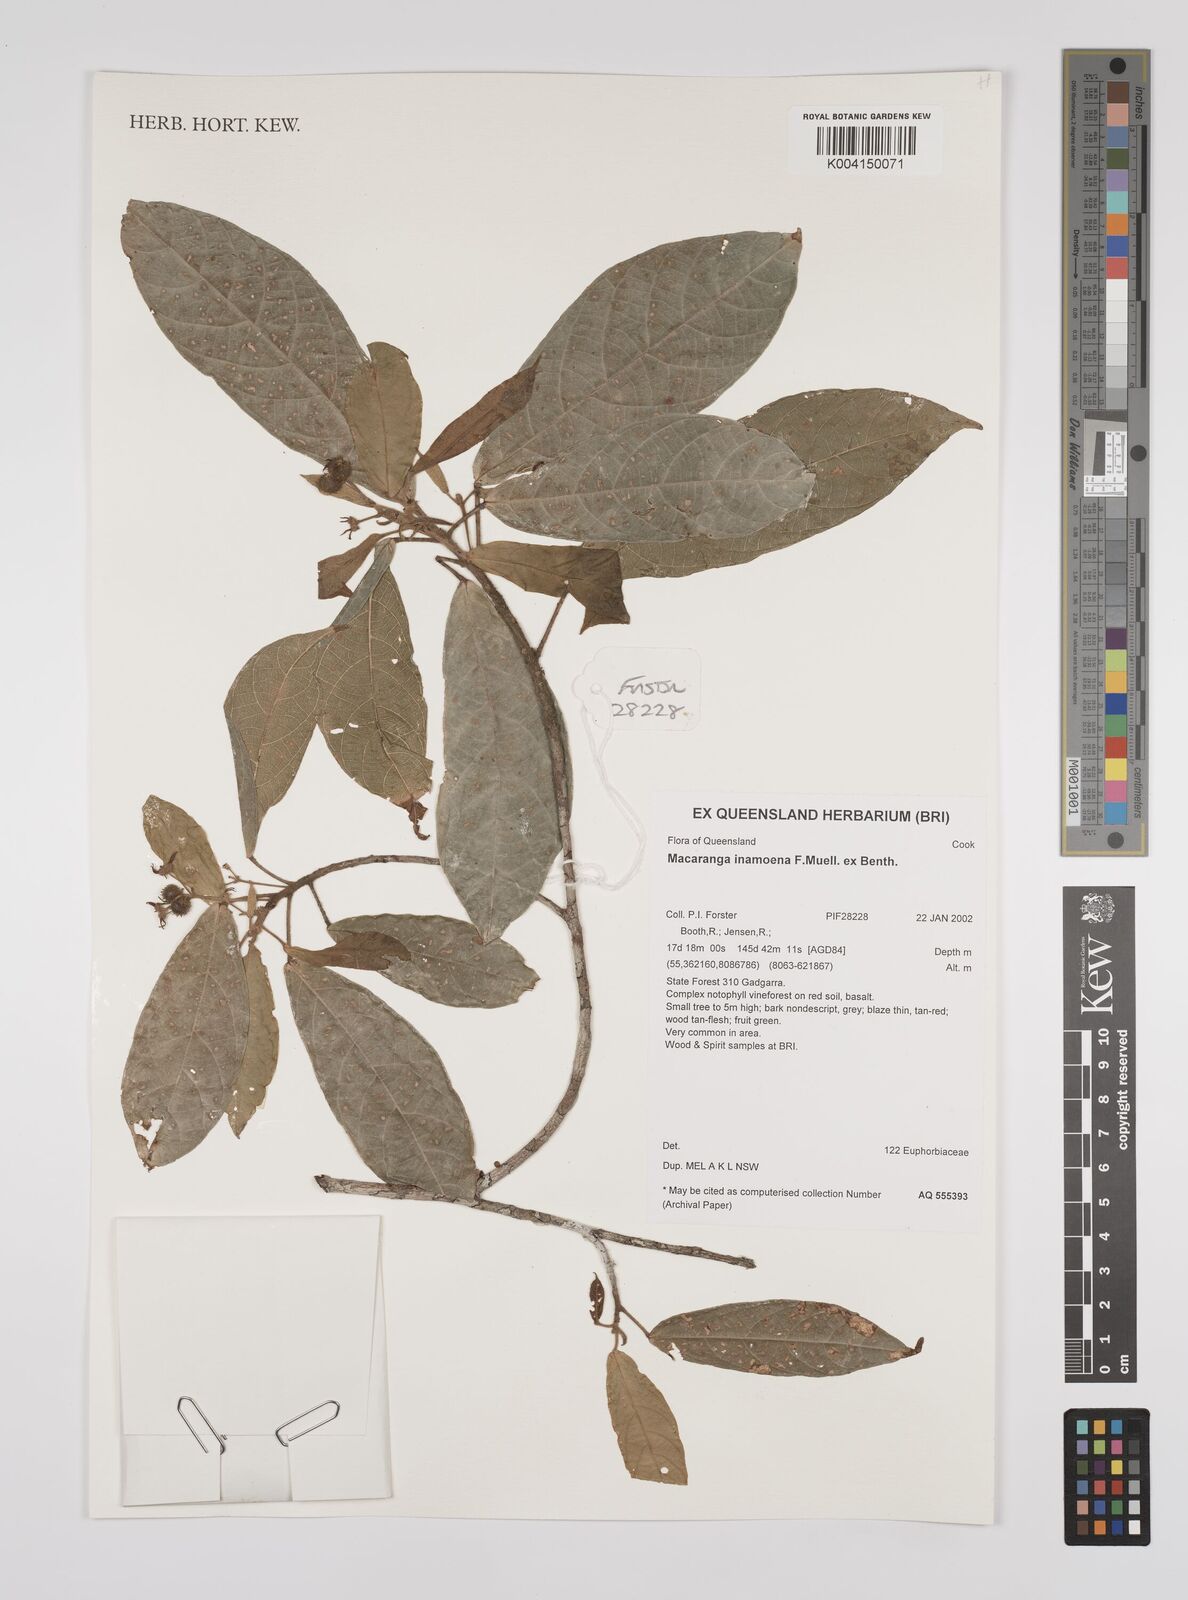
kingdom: Plantae
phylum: Tracheophyta
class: Magnoliopsida
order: Malpighiales
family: Euphorbiaceae
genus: Macaranga
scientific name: Macaranga inamoena
